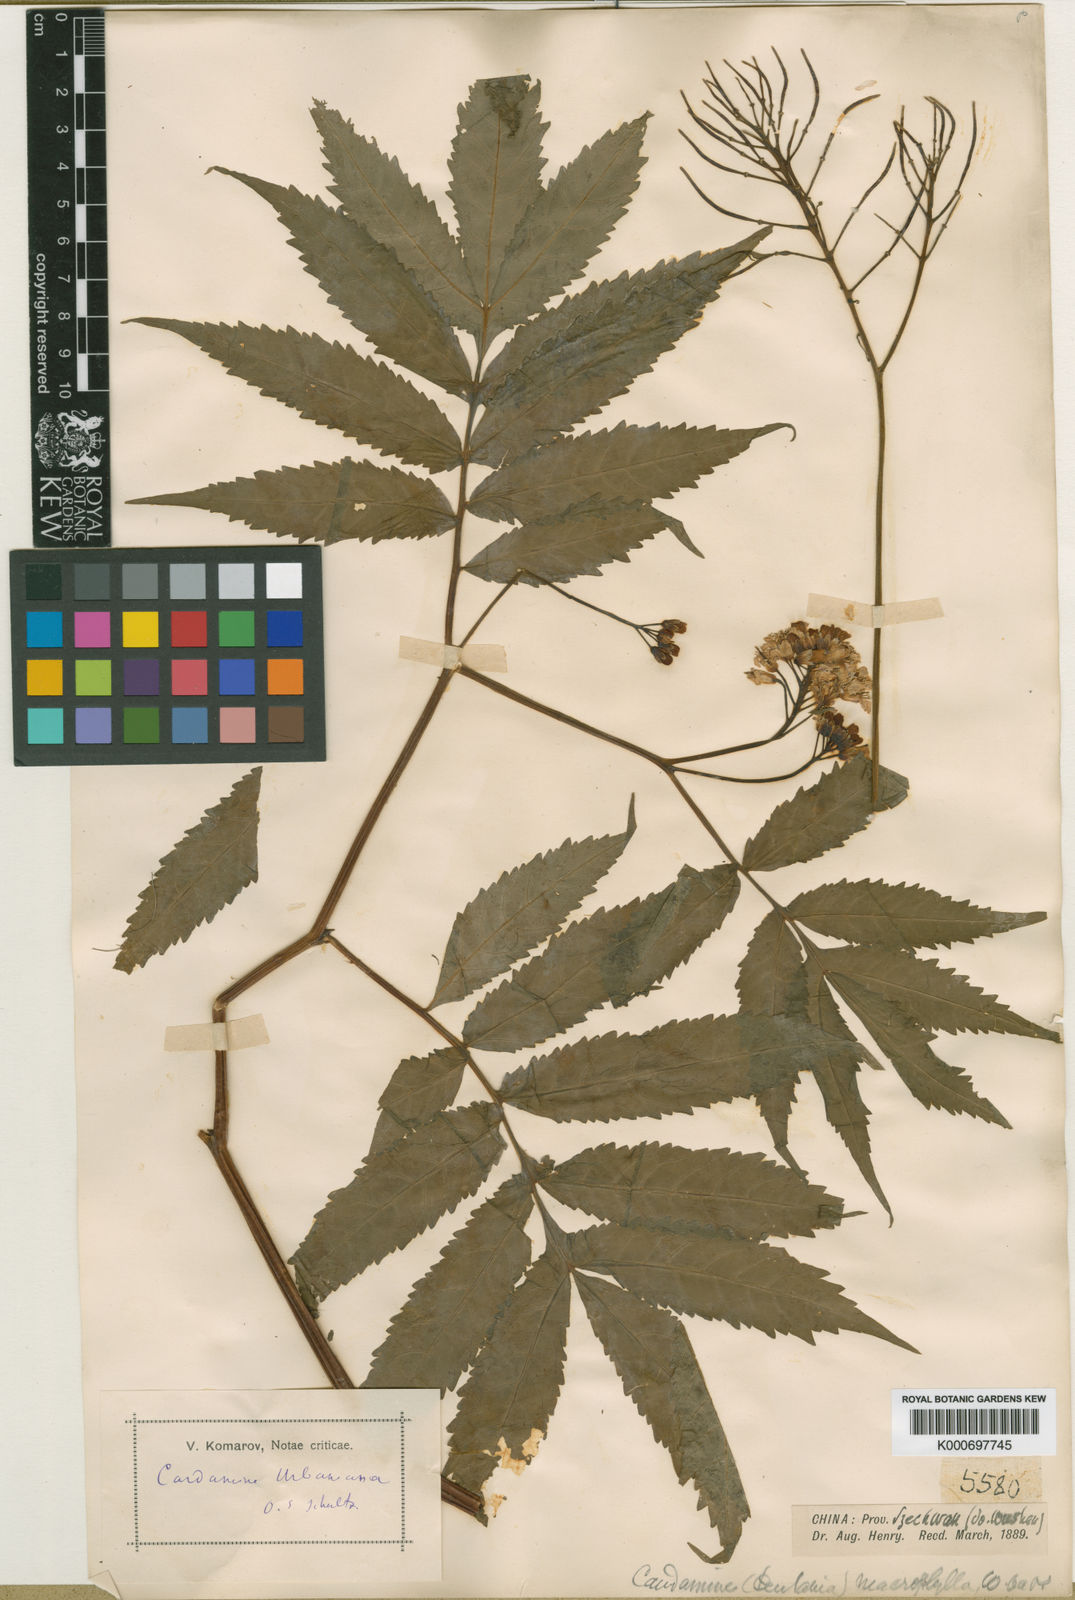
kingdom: Plantae
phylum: Tracheophyta
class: Magnoliopsida
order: Brassicales
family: Brassicaceae
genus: Cardamine
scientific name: Cardamine macrophylla
